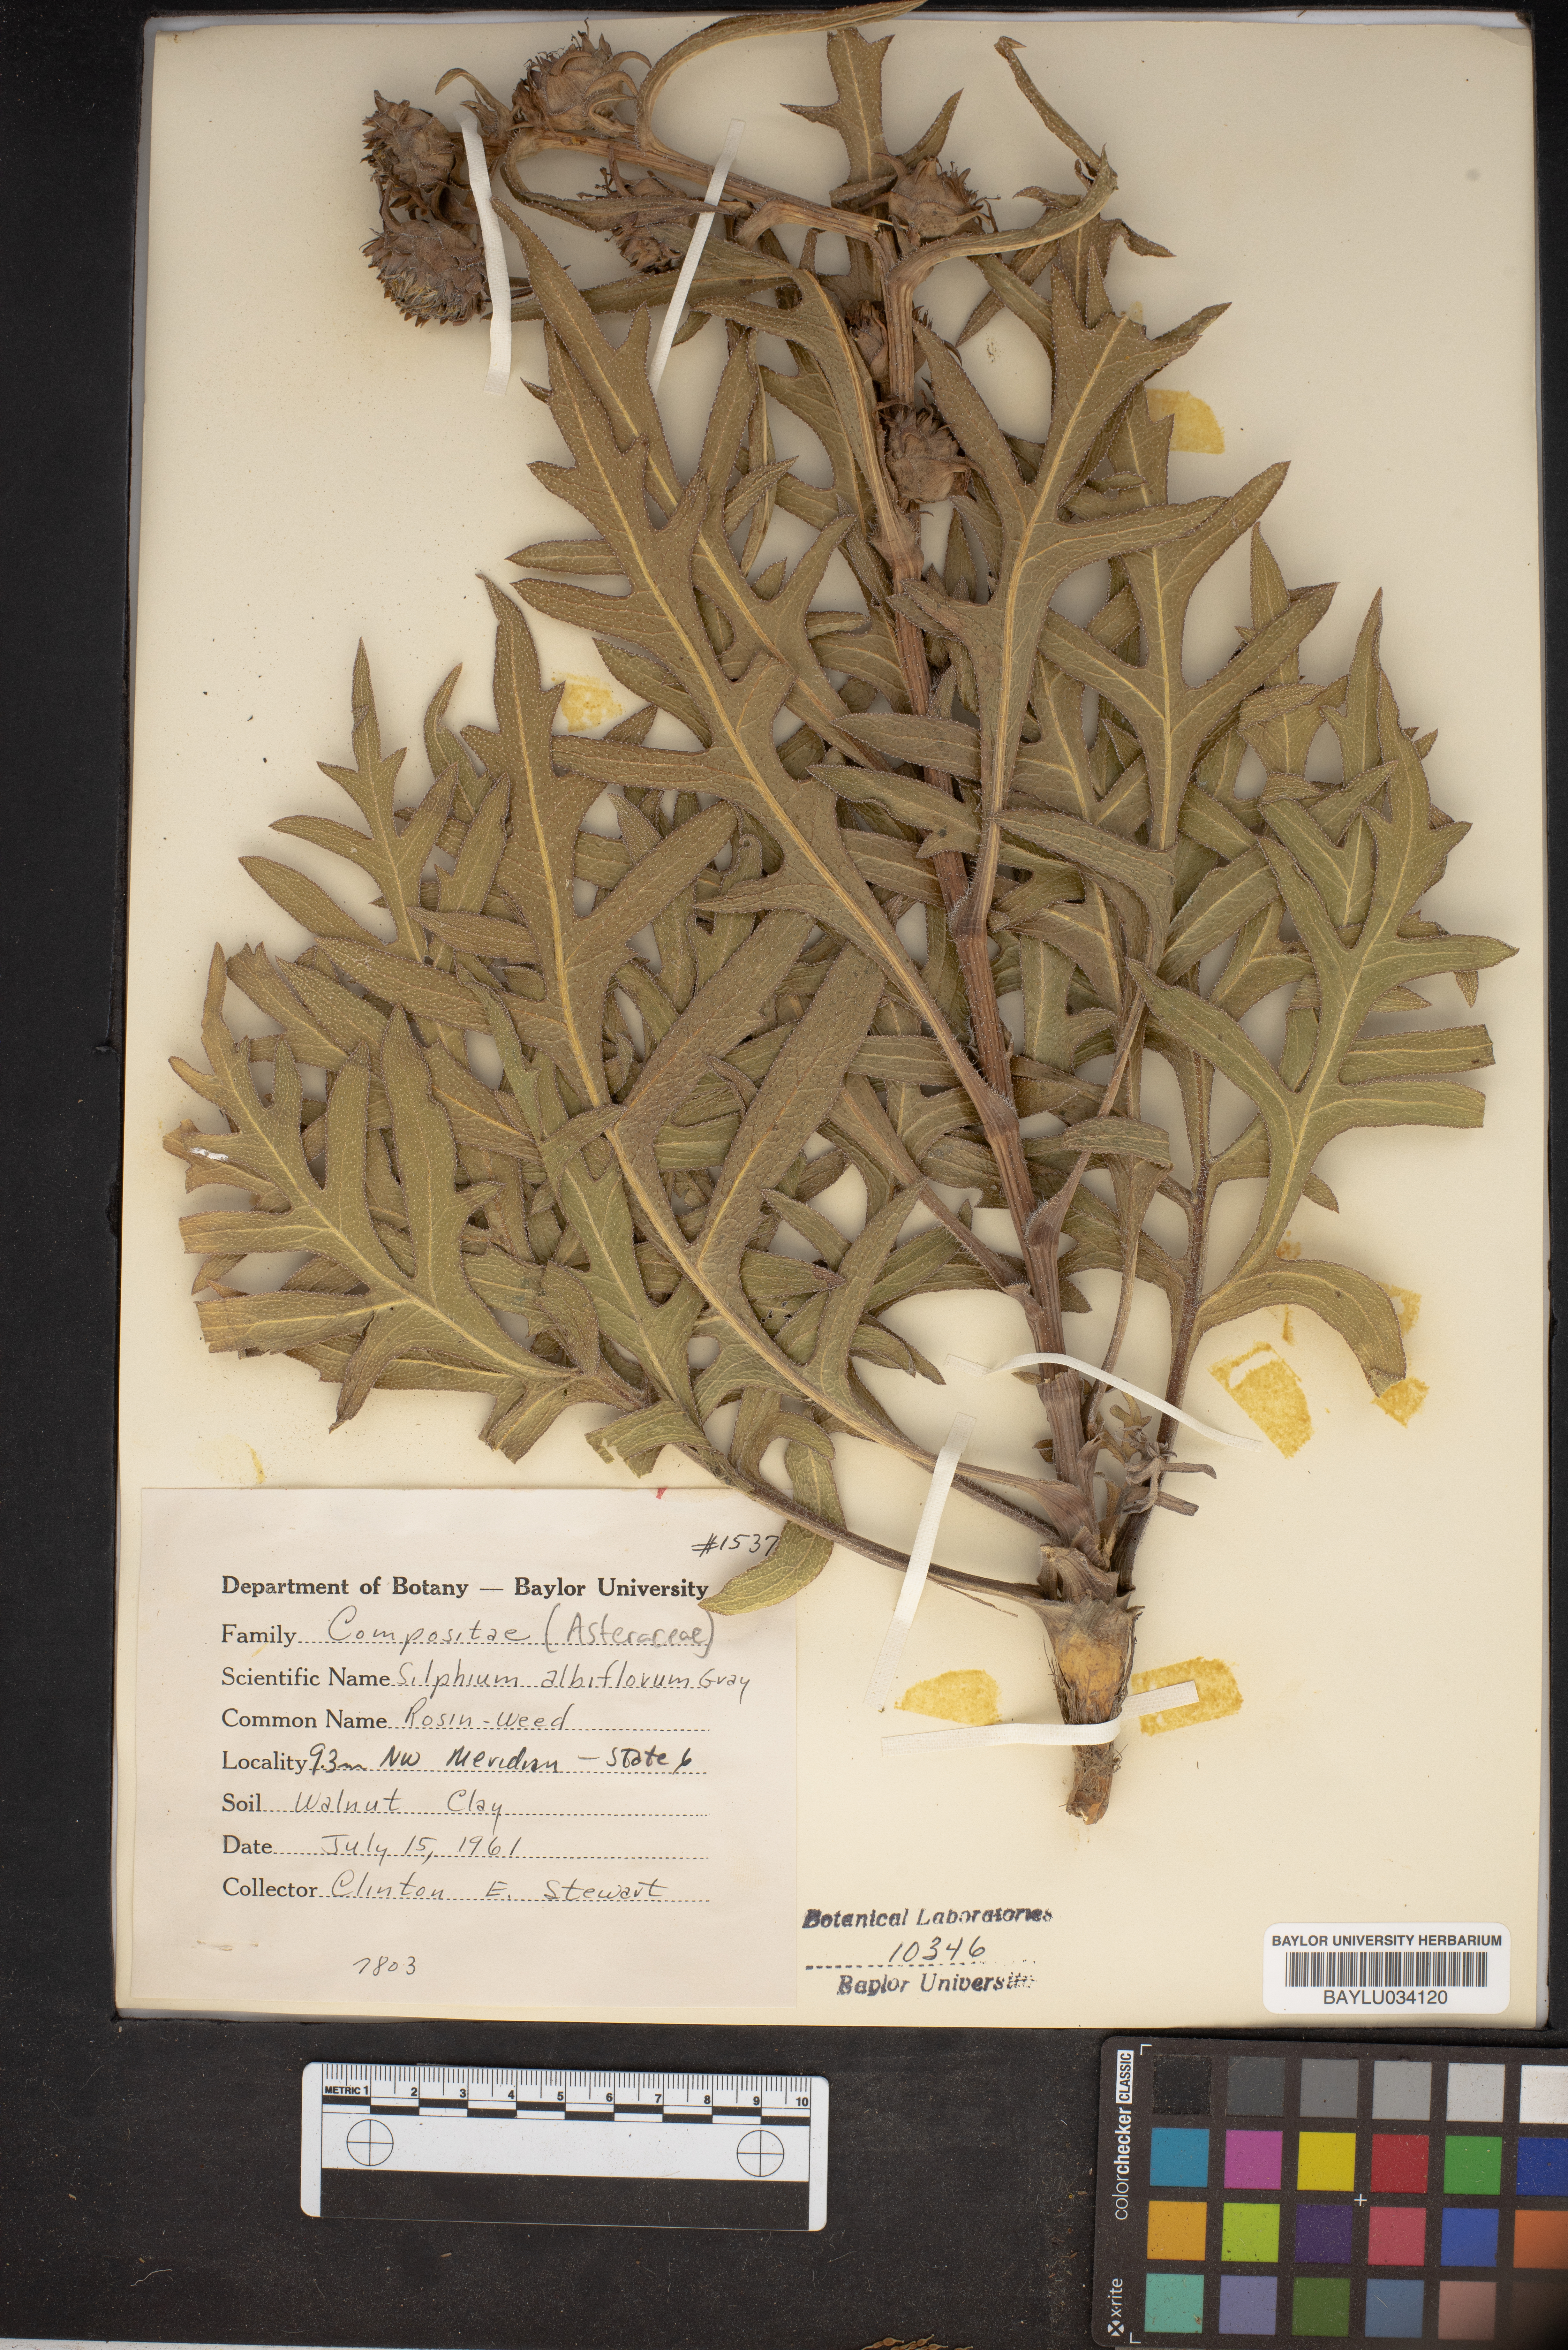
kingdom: Plantae
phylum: Tracheophyta
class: Magnoliopsida
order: Asterales
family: Asteraceae
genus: Silphium
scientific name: Silphium albiflorum
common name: White rosinweed
